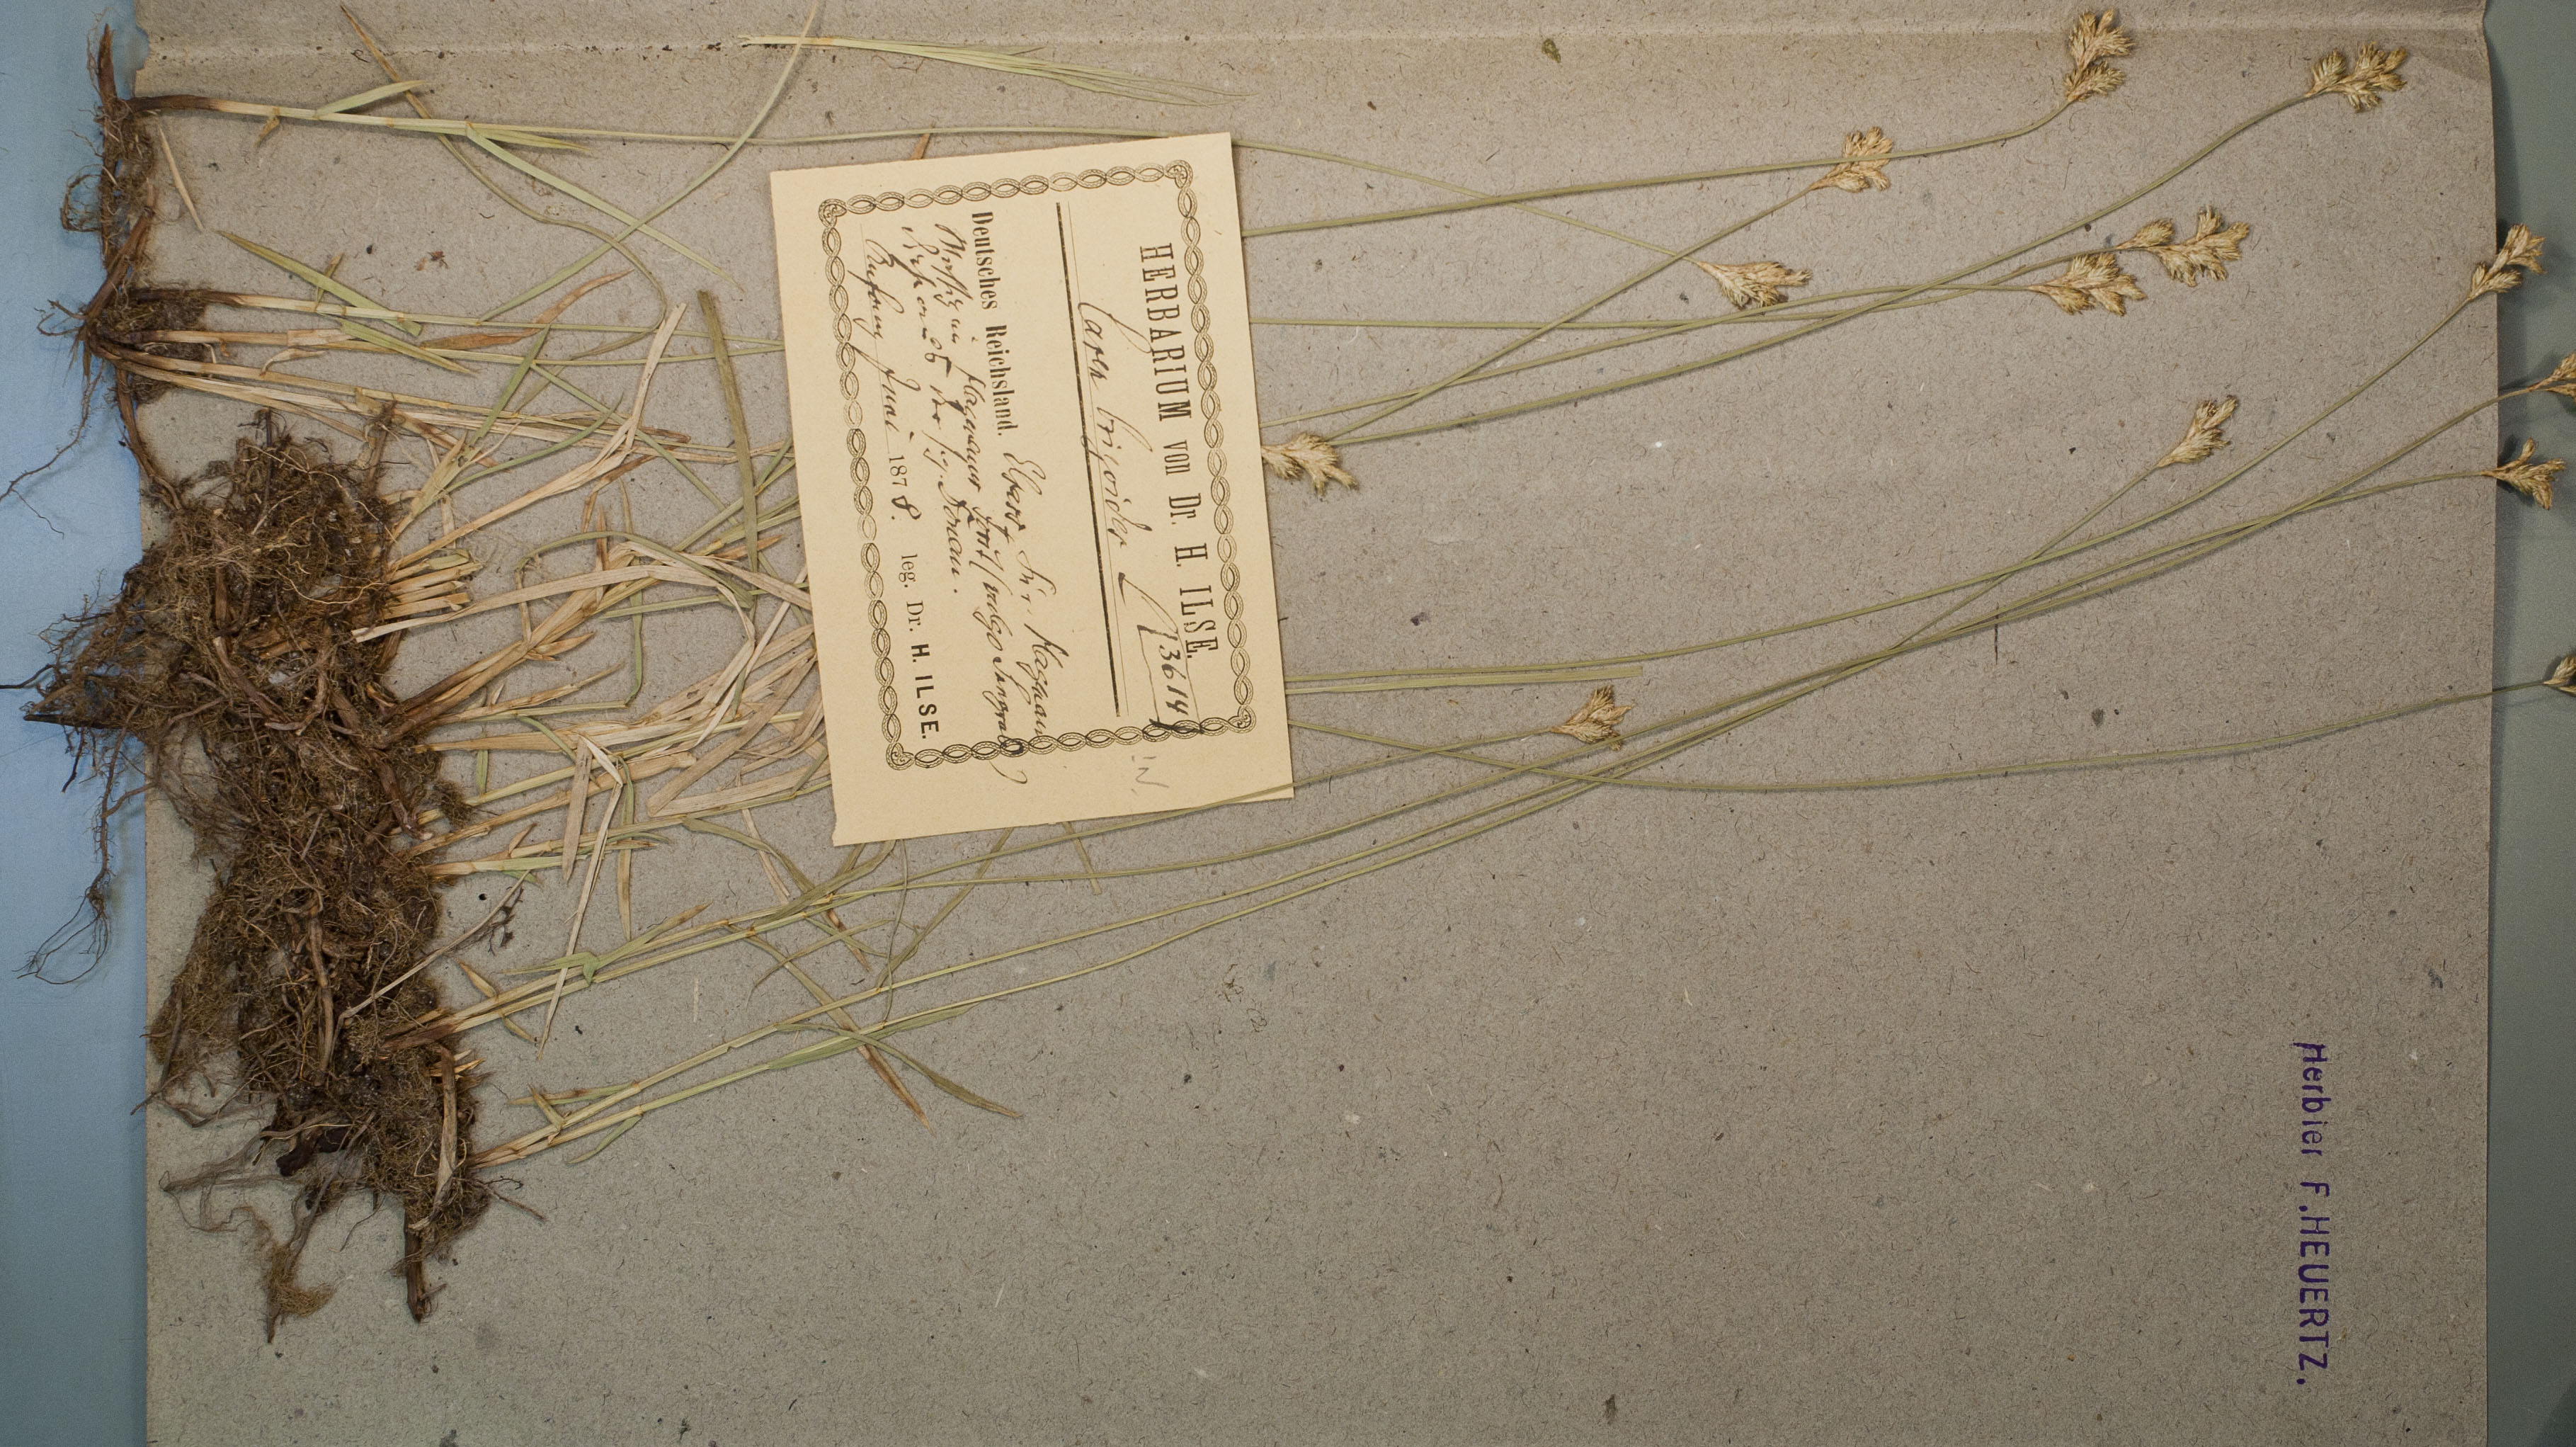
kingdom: Plantae
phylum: Tracheophyta
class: Liliopsida
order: Poales
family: Cyperaceae
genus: Carex
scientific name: Carex brizoides
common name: Quaking-grass sedge
